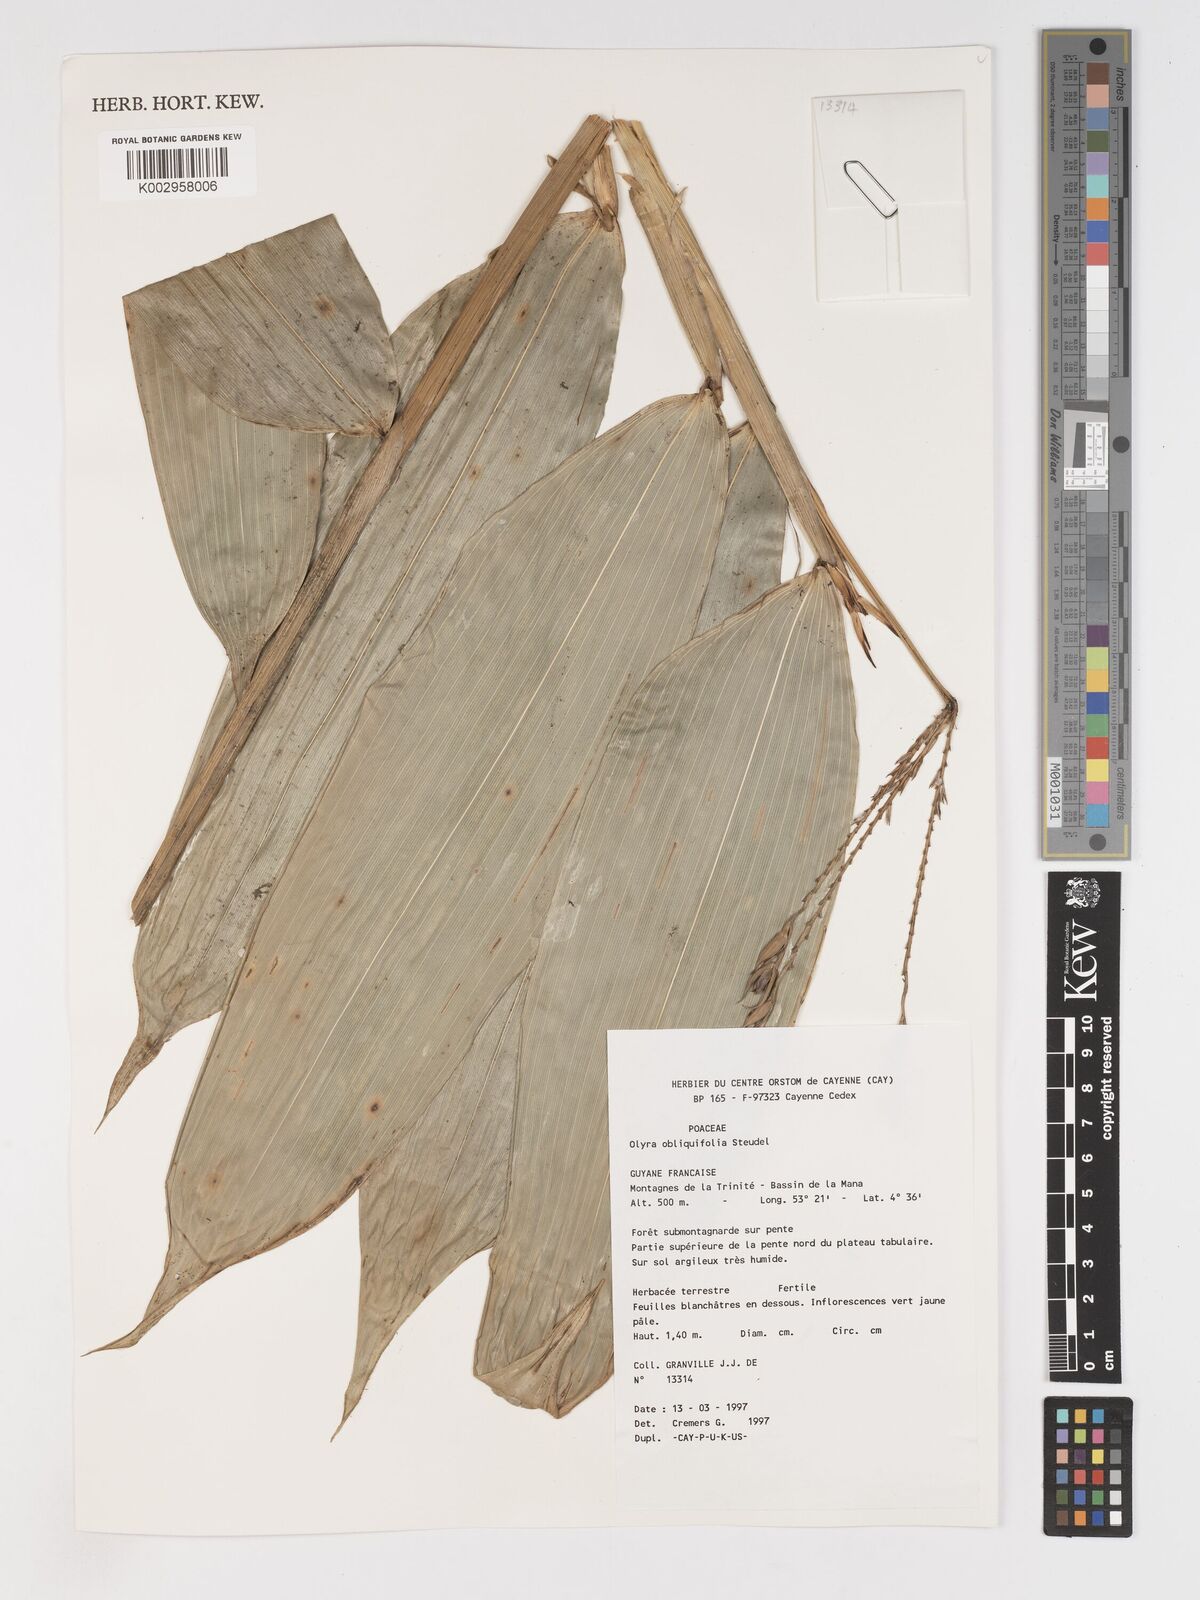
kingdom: Plantae
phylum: Tracheophyta
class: Liliopsida
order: Poales
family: Poaceae
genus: Olyra
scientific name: Olyra obliquifolia
